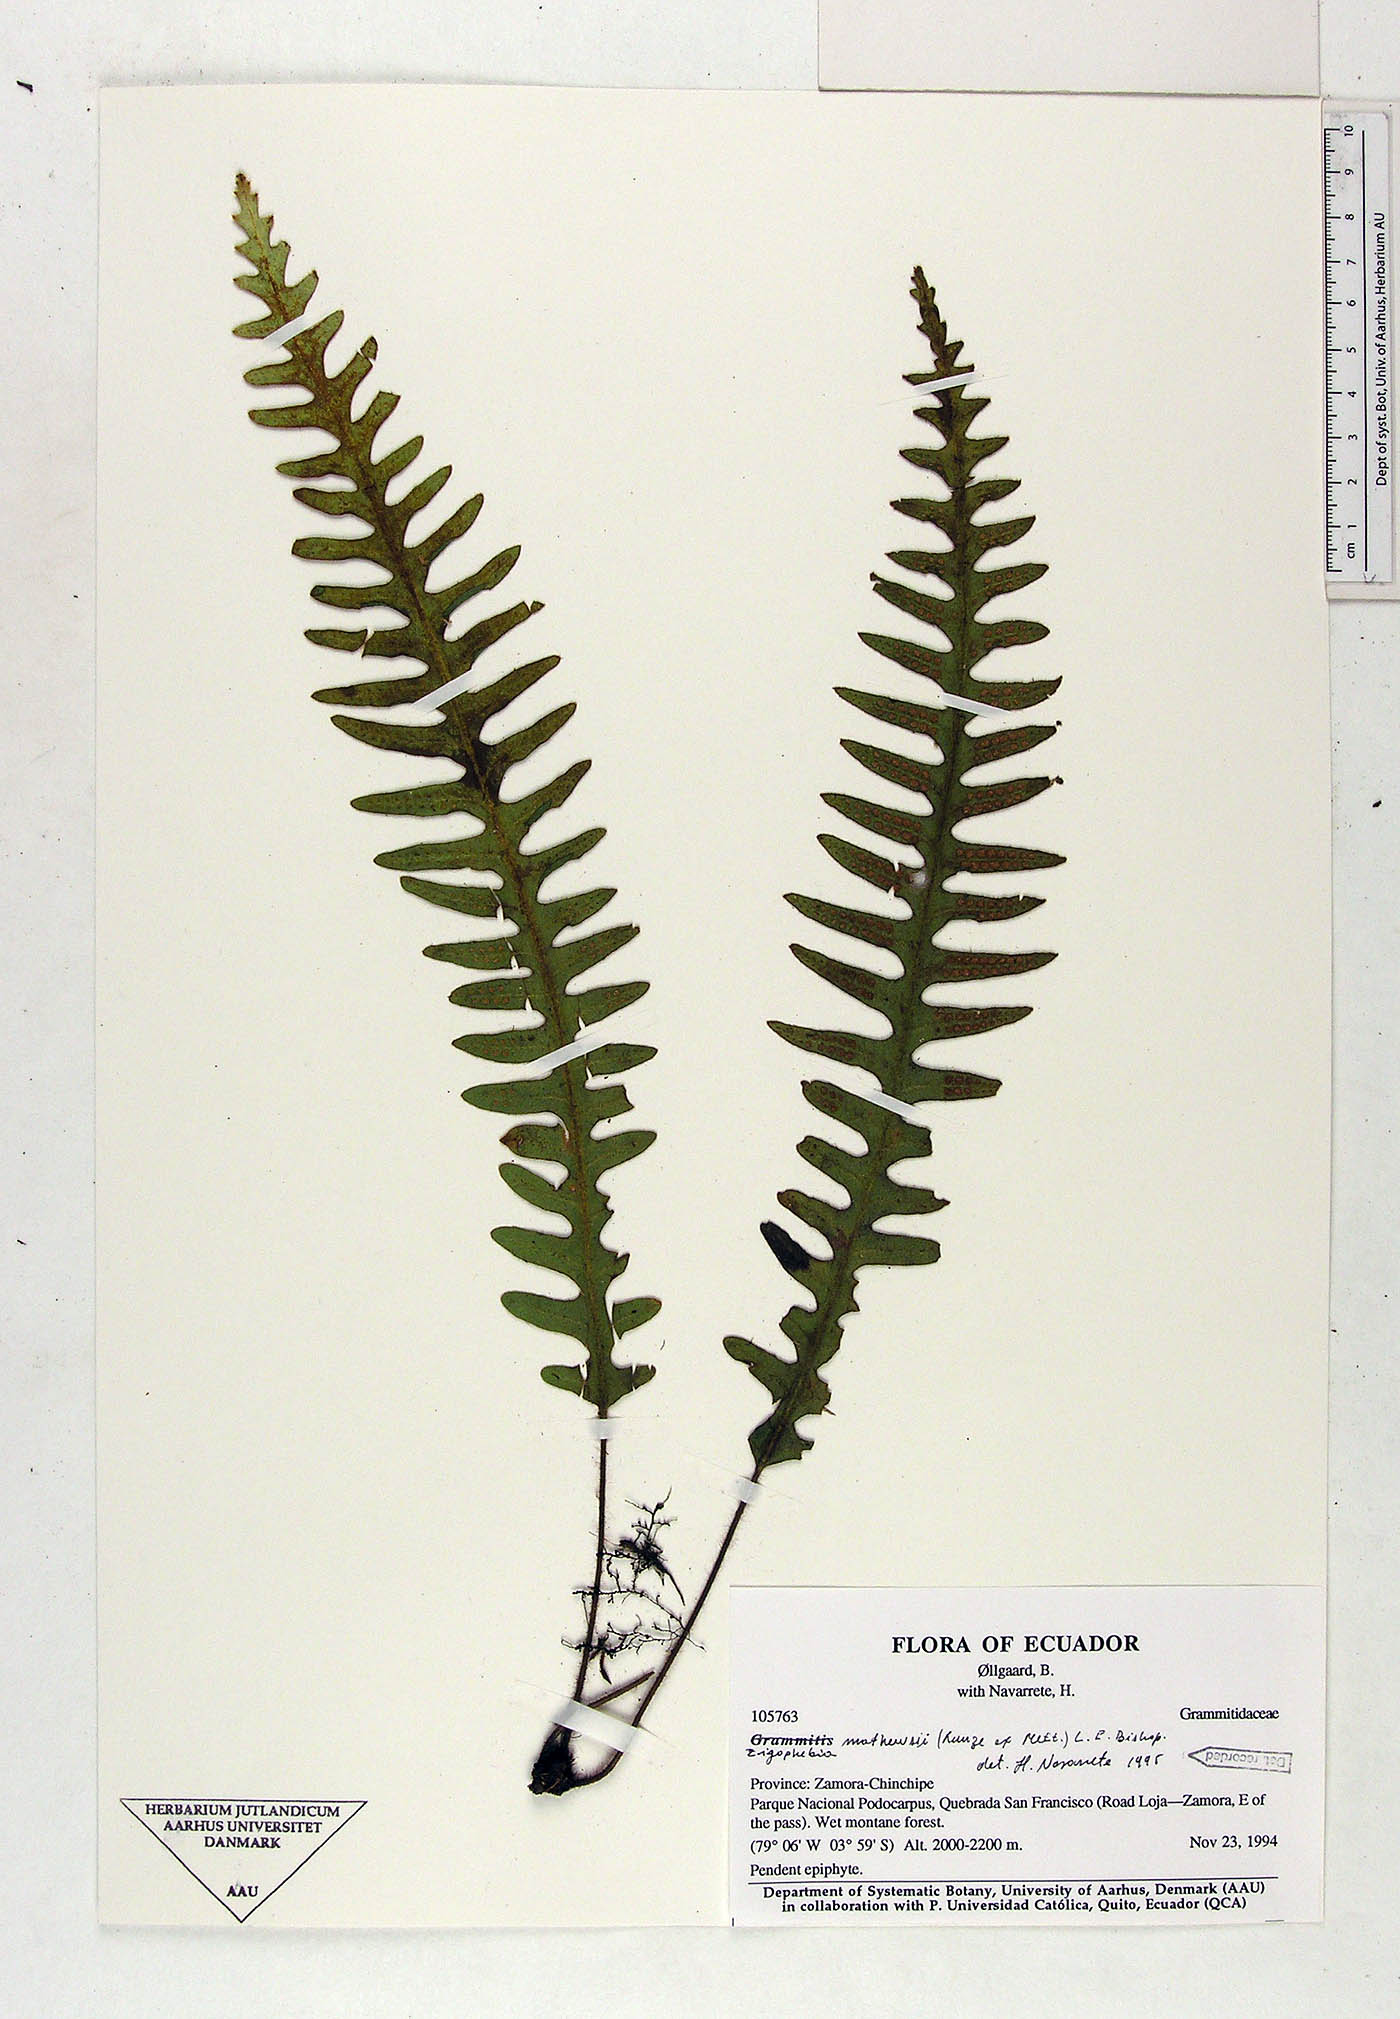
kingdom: Plantae
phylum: Tracheophyta
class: Polypodiopsida
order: Polypodiales
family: Polypodiaceae
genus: Enterosora
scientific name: Enterosora mathewsii
